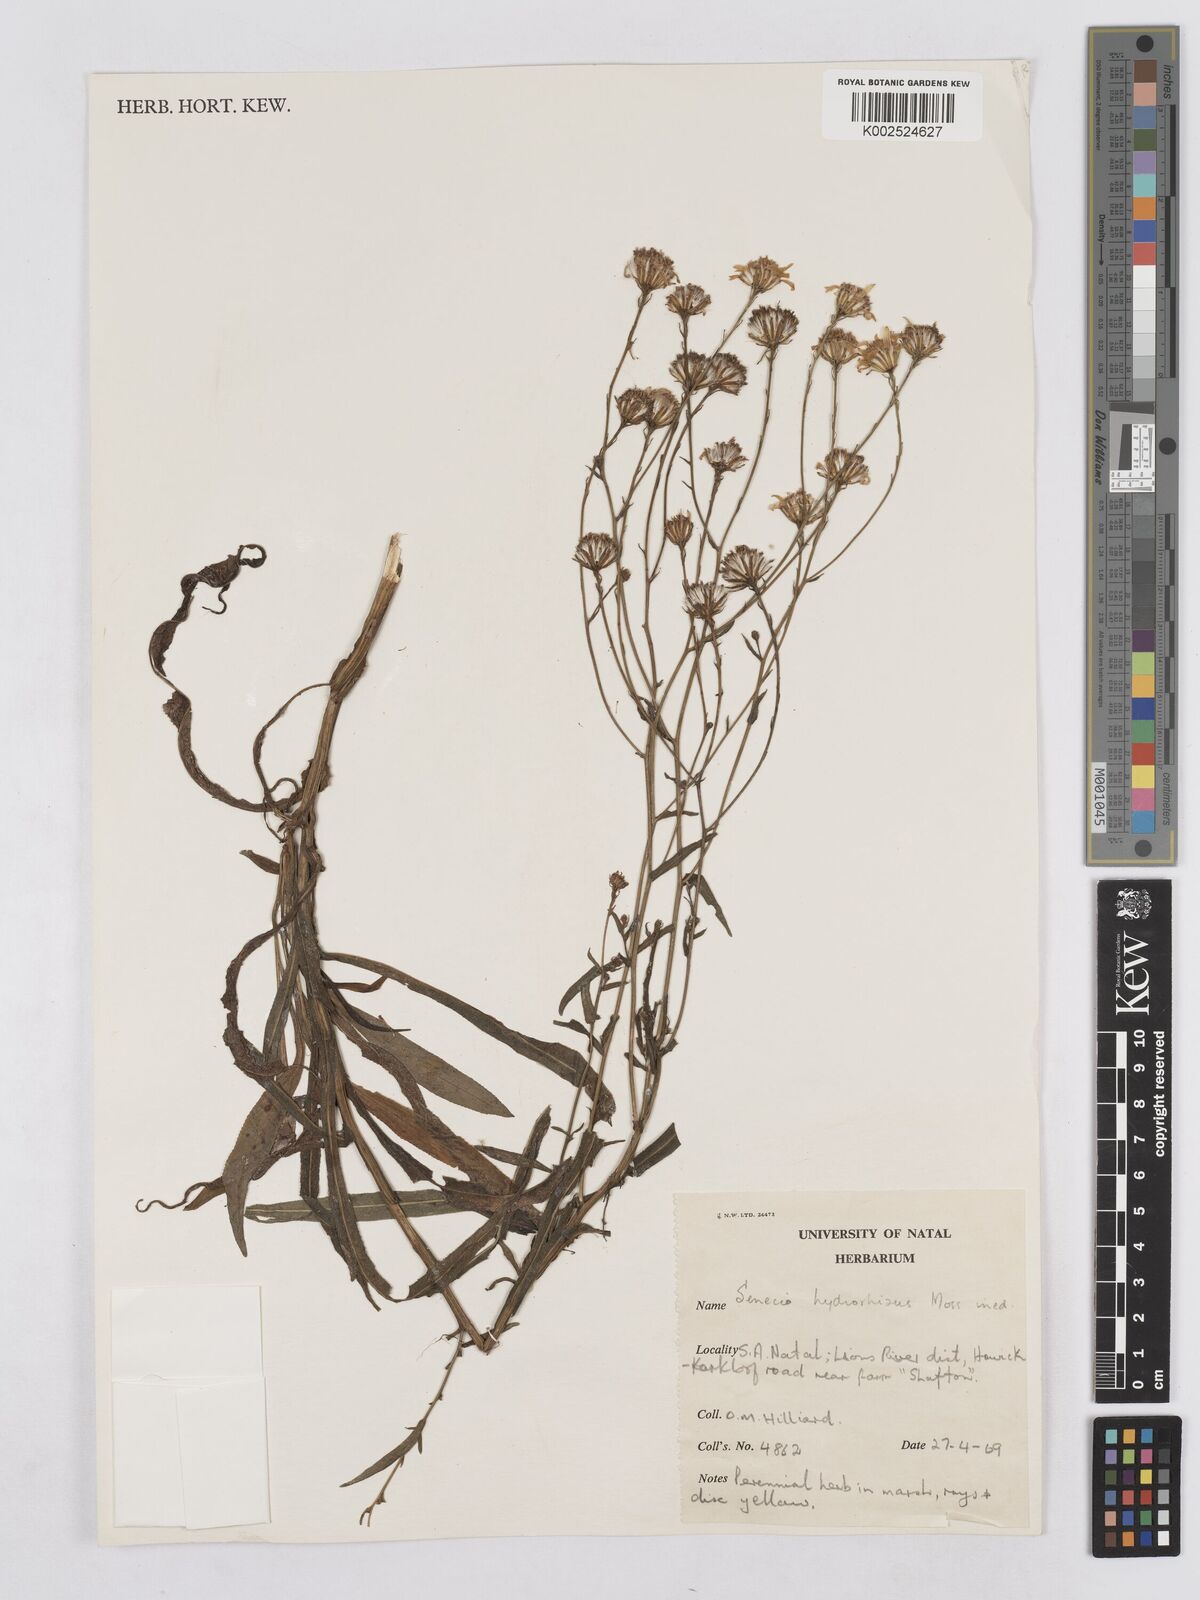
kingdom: Plantae
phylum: Tracheophyta
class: Magnoliopsida
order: Asterales
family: Asteraceae
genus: Senecio
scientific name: Senecio inornatus
